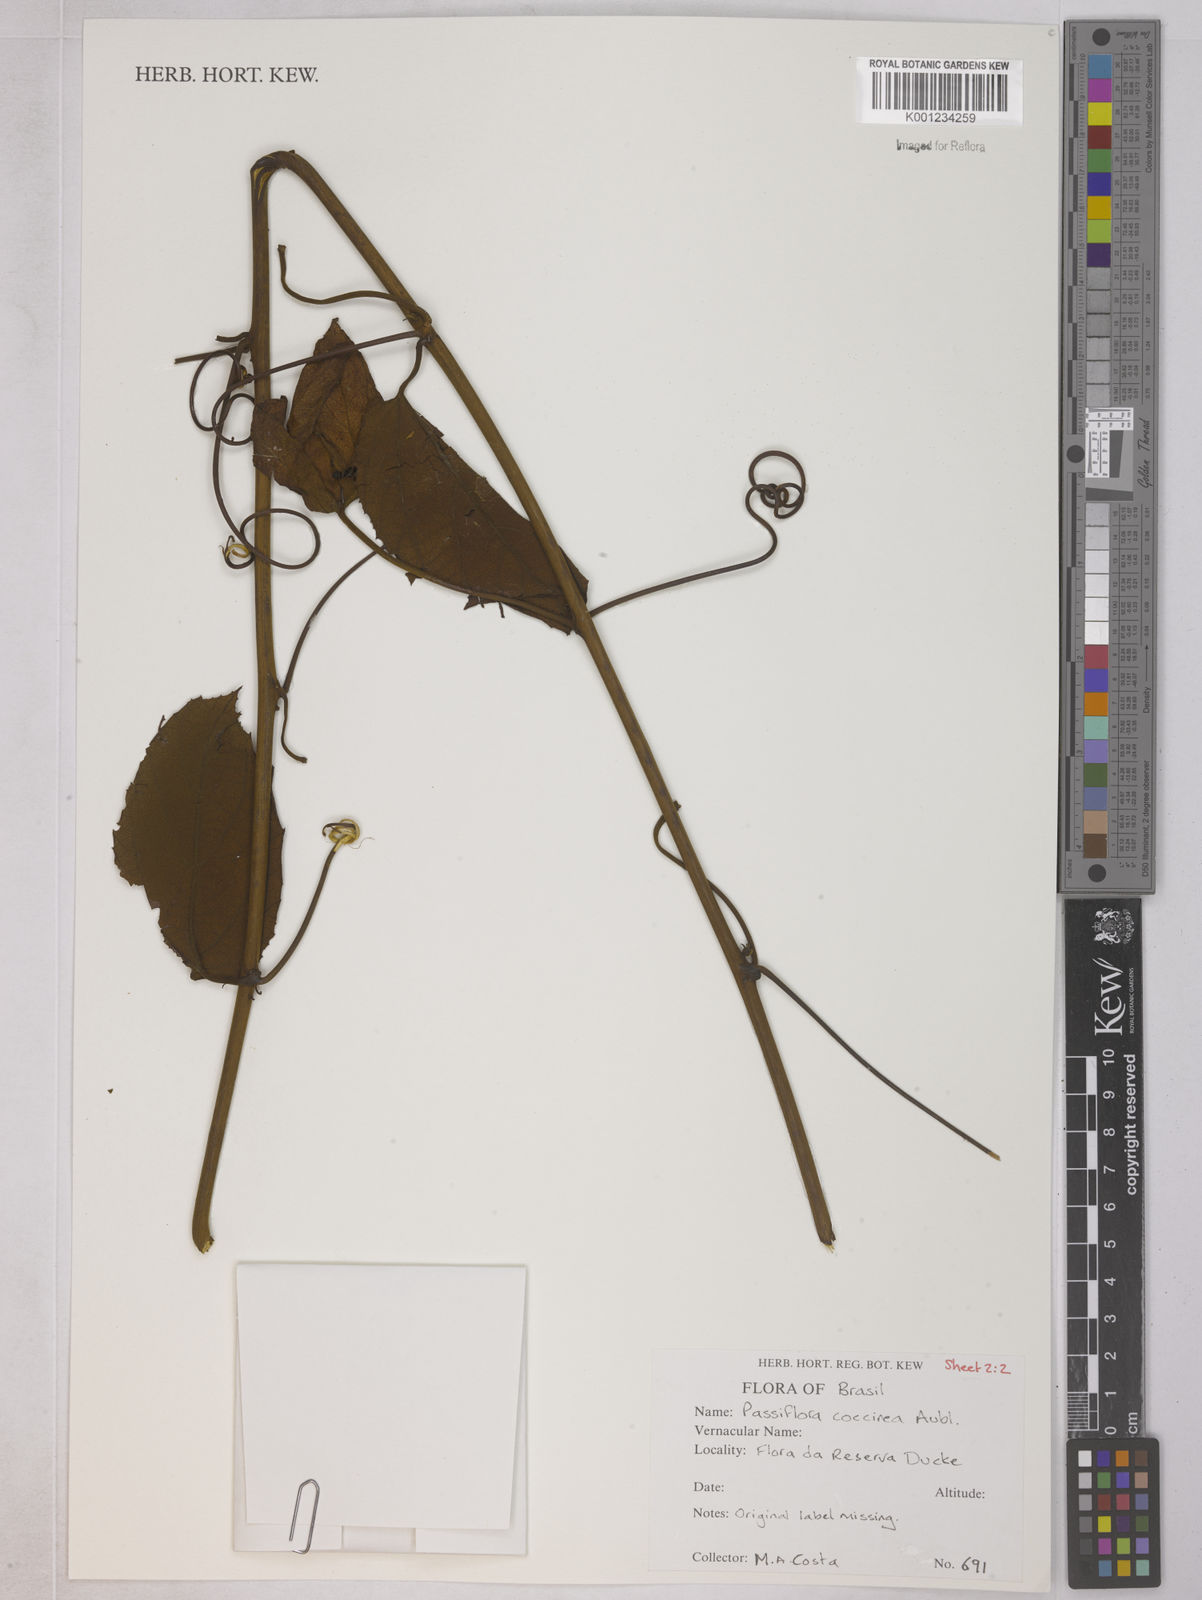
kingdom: Plantae
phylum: Tracheophyta
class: Magnoliopsida
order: Malpighiales
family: Passifloraceae
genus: Passiflora
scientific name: Passiflora coccinea
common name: Scarlet passionflower
